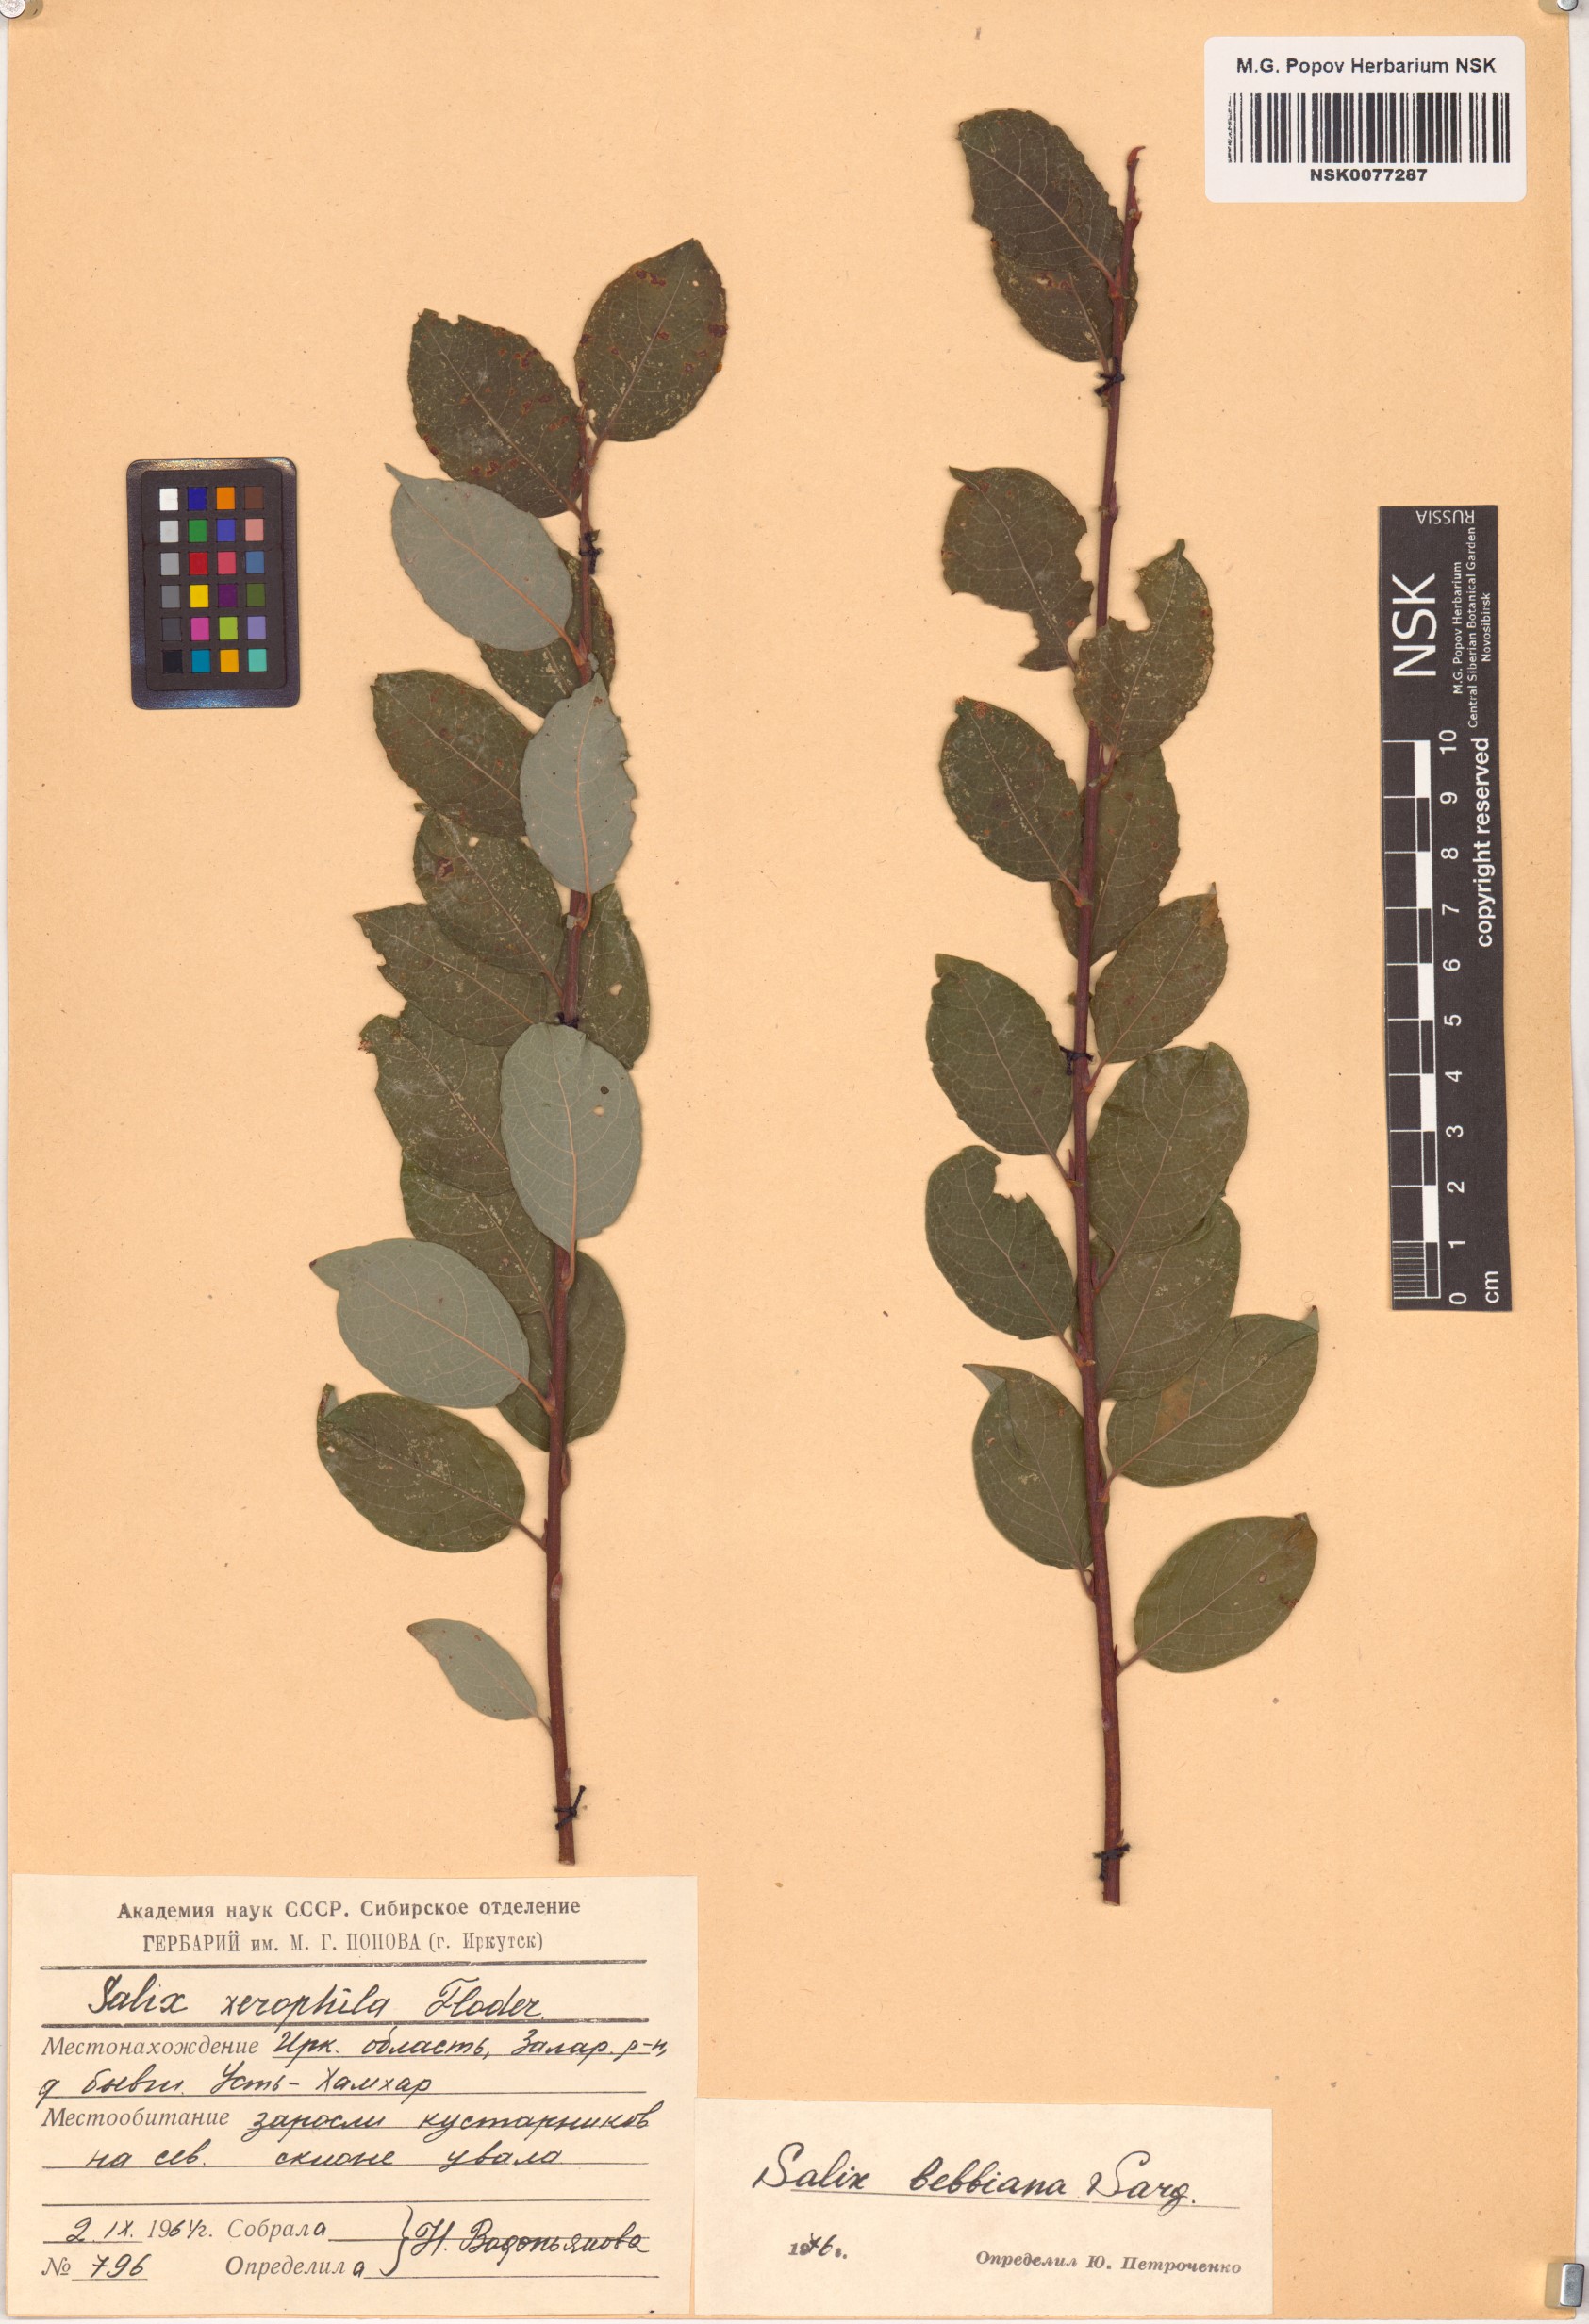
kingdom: Plantae
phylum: Tracheophyta
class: Magnoliopsida
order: Malpighiales
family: Salicaceae
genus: Salix
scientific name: Salix bebbiana
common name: Bebb's willow
